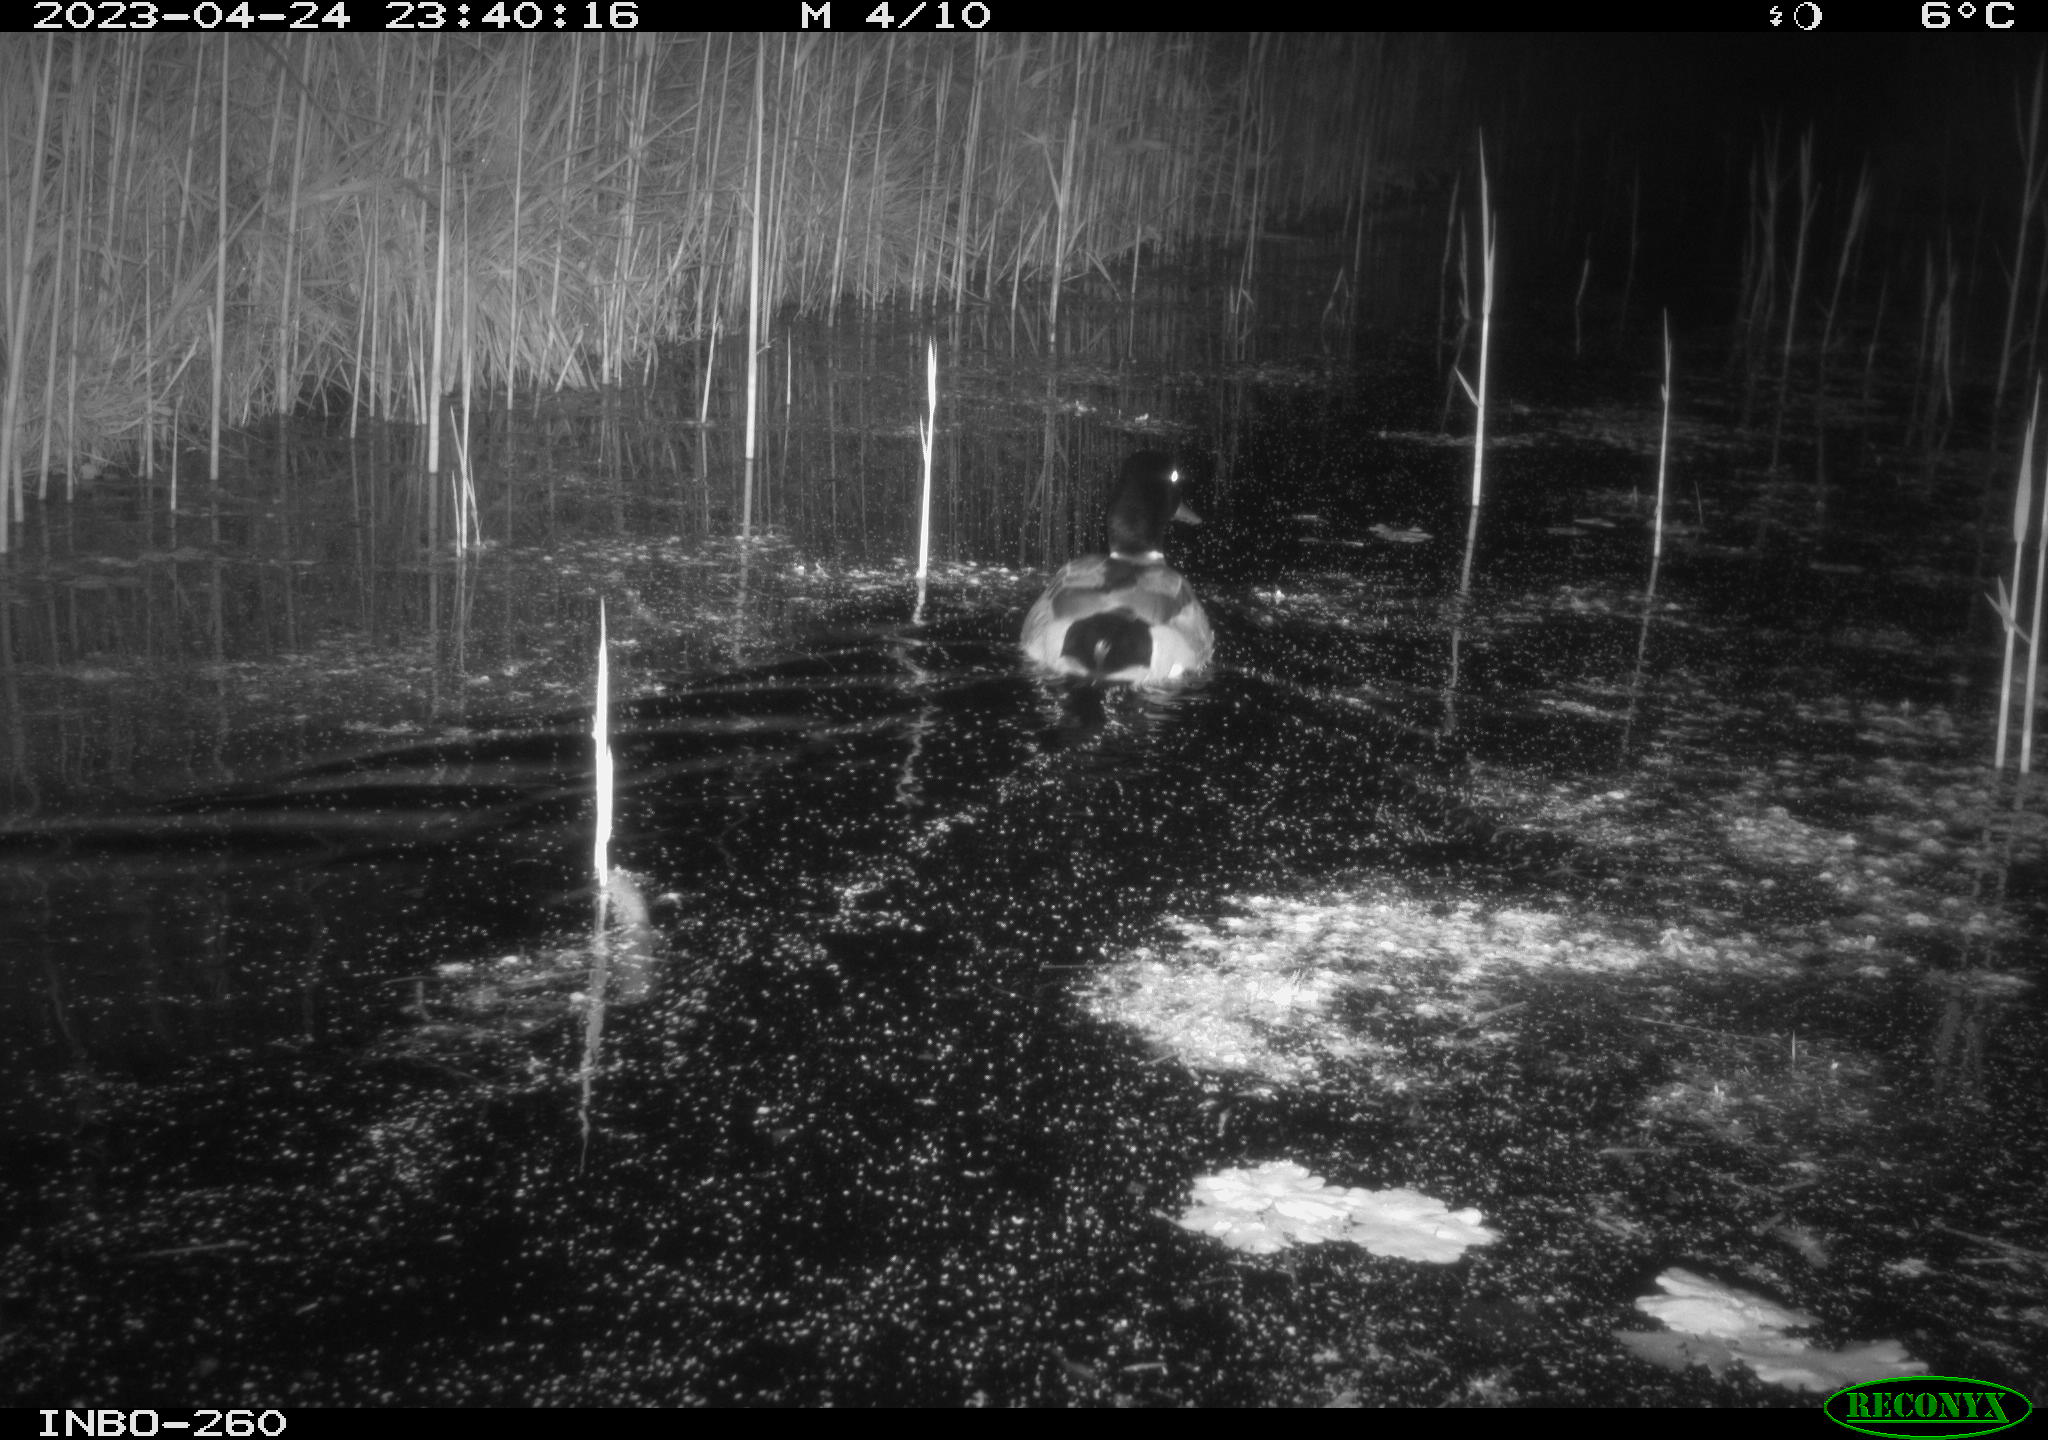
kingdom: Animalia
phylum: Chordata
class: Aves
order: Anseriformes
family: Anatidae
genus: Anas
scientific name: Anas
